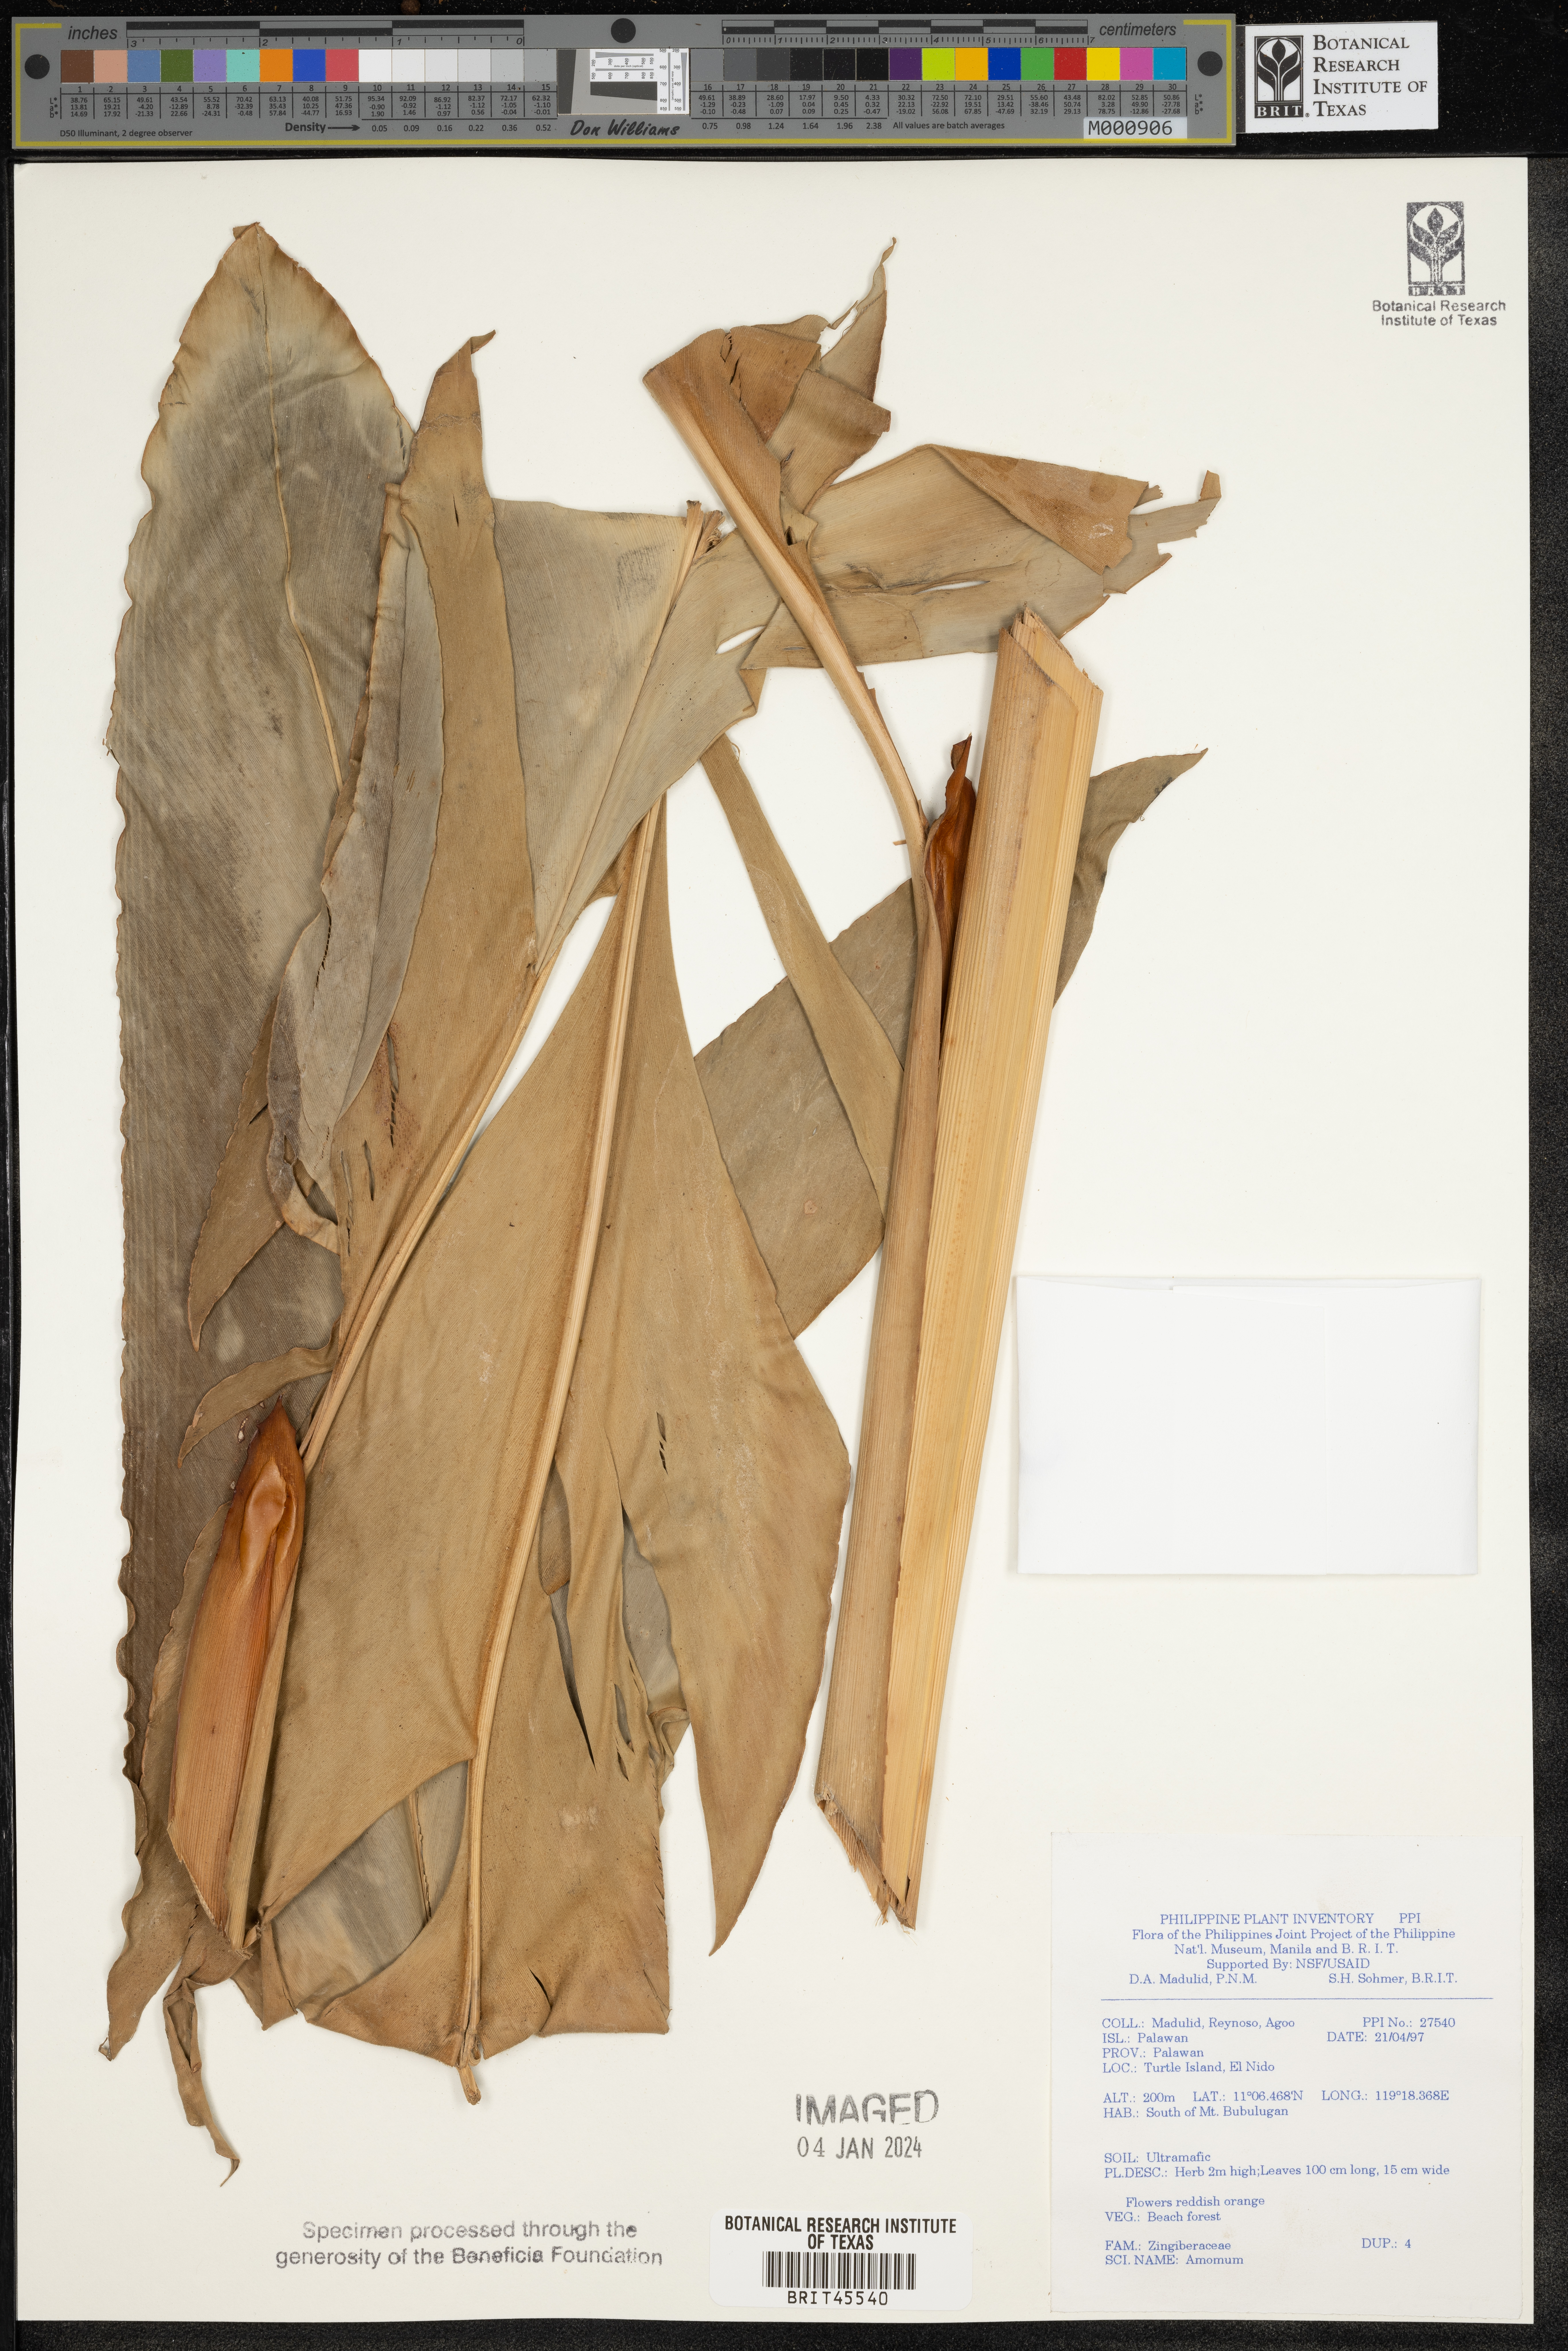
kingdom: Plantae
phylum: Tracheophyta
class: Liliopsida
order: Zingiberales
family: Zingiberaceae
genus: Amomum
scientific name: Amomum
